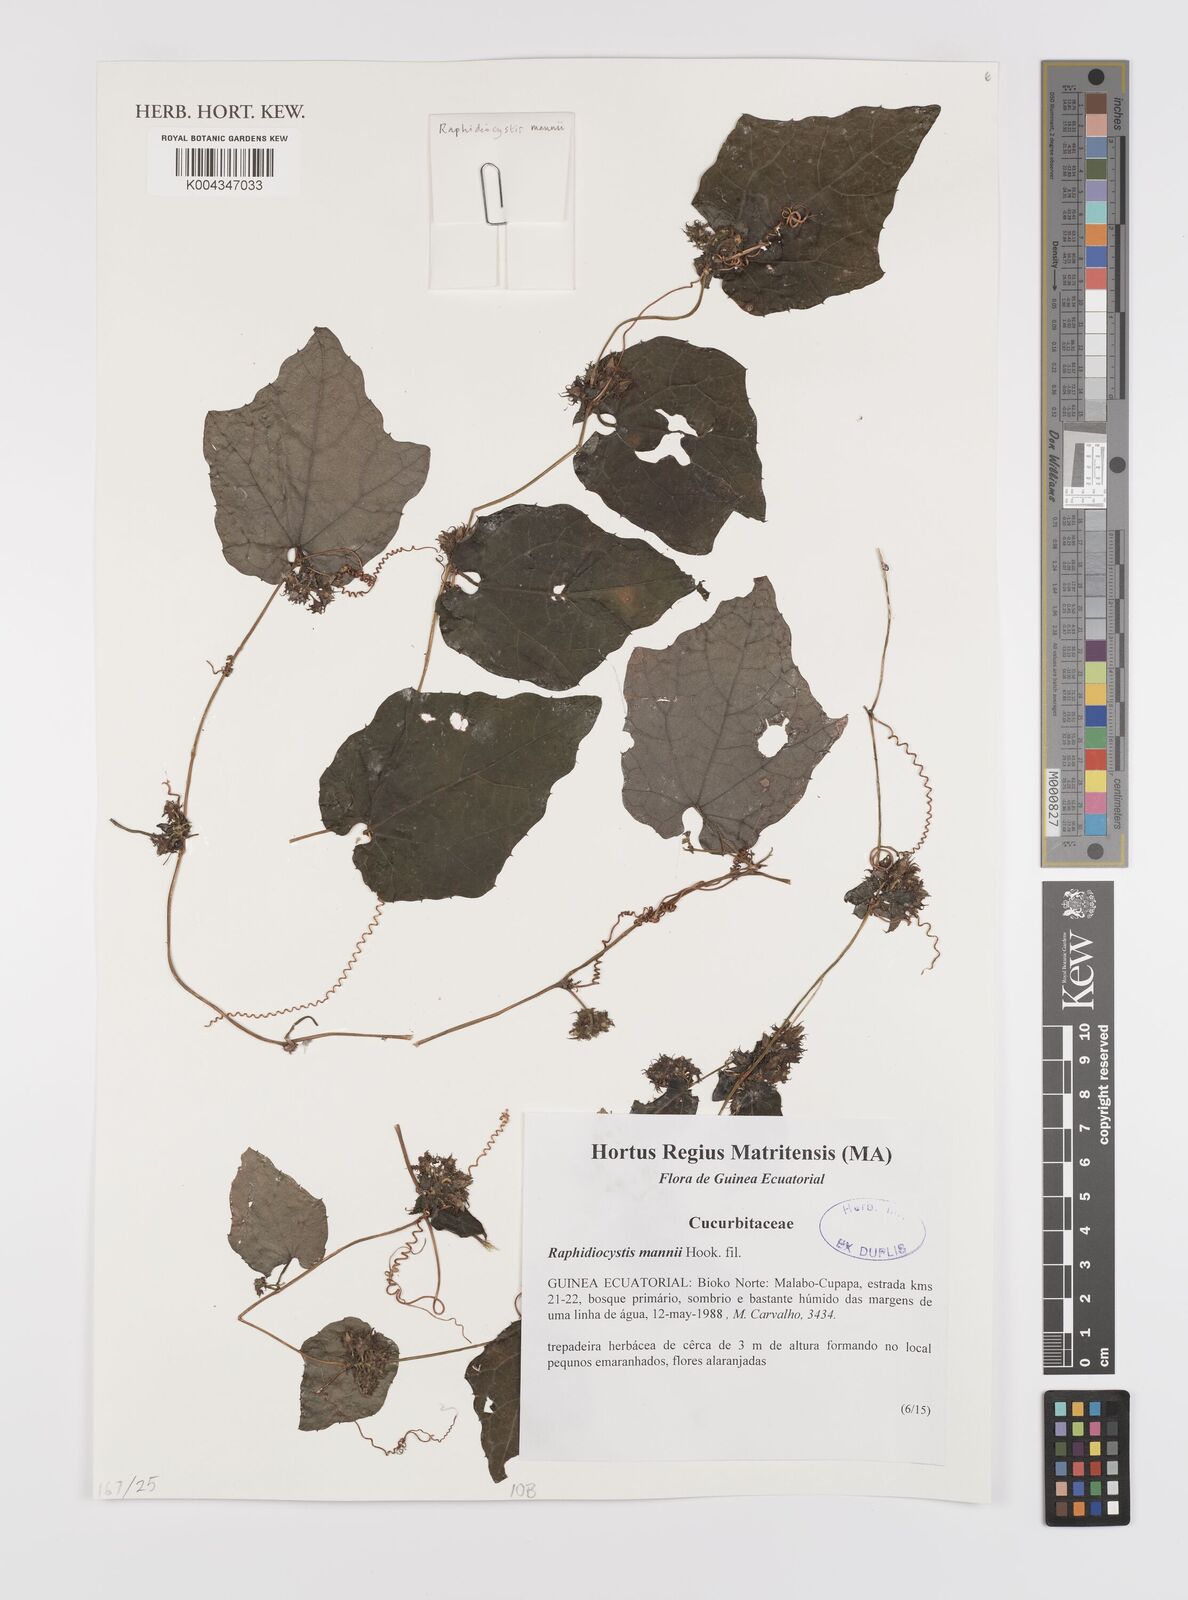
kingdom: Plantae
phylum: Tracheophyta
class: Magnoliopsida
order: Cucurbitales
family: Cucurbitaceae
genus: Raphidiocystis
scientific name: Raphidiocystis mannii
